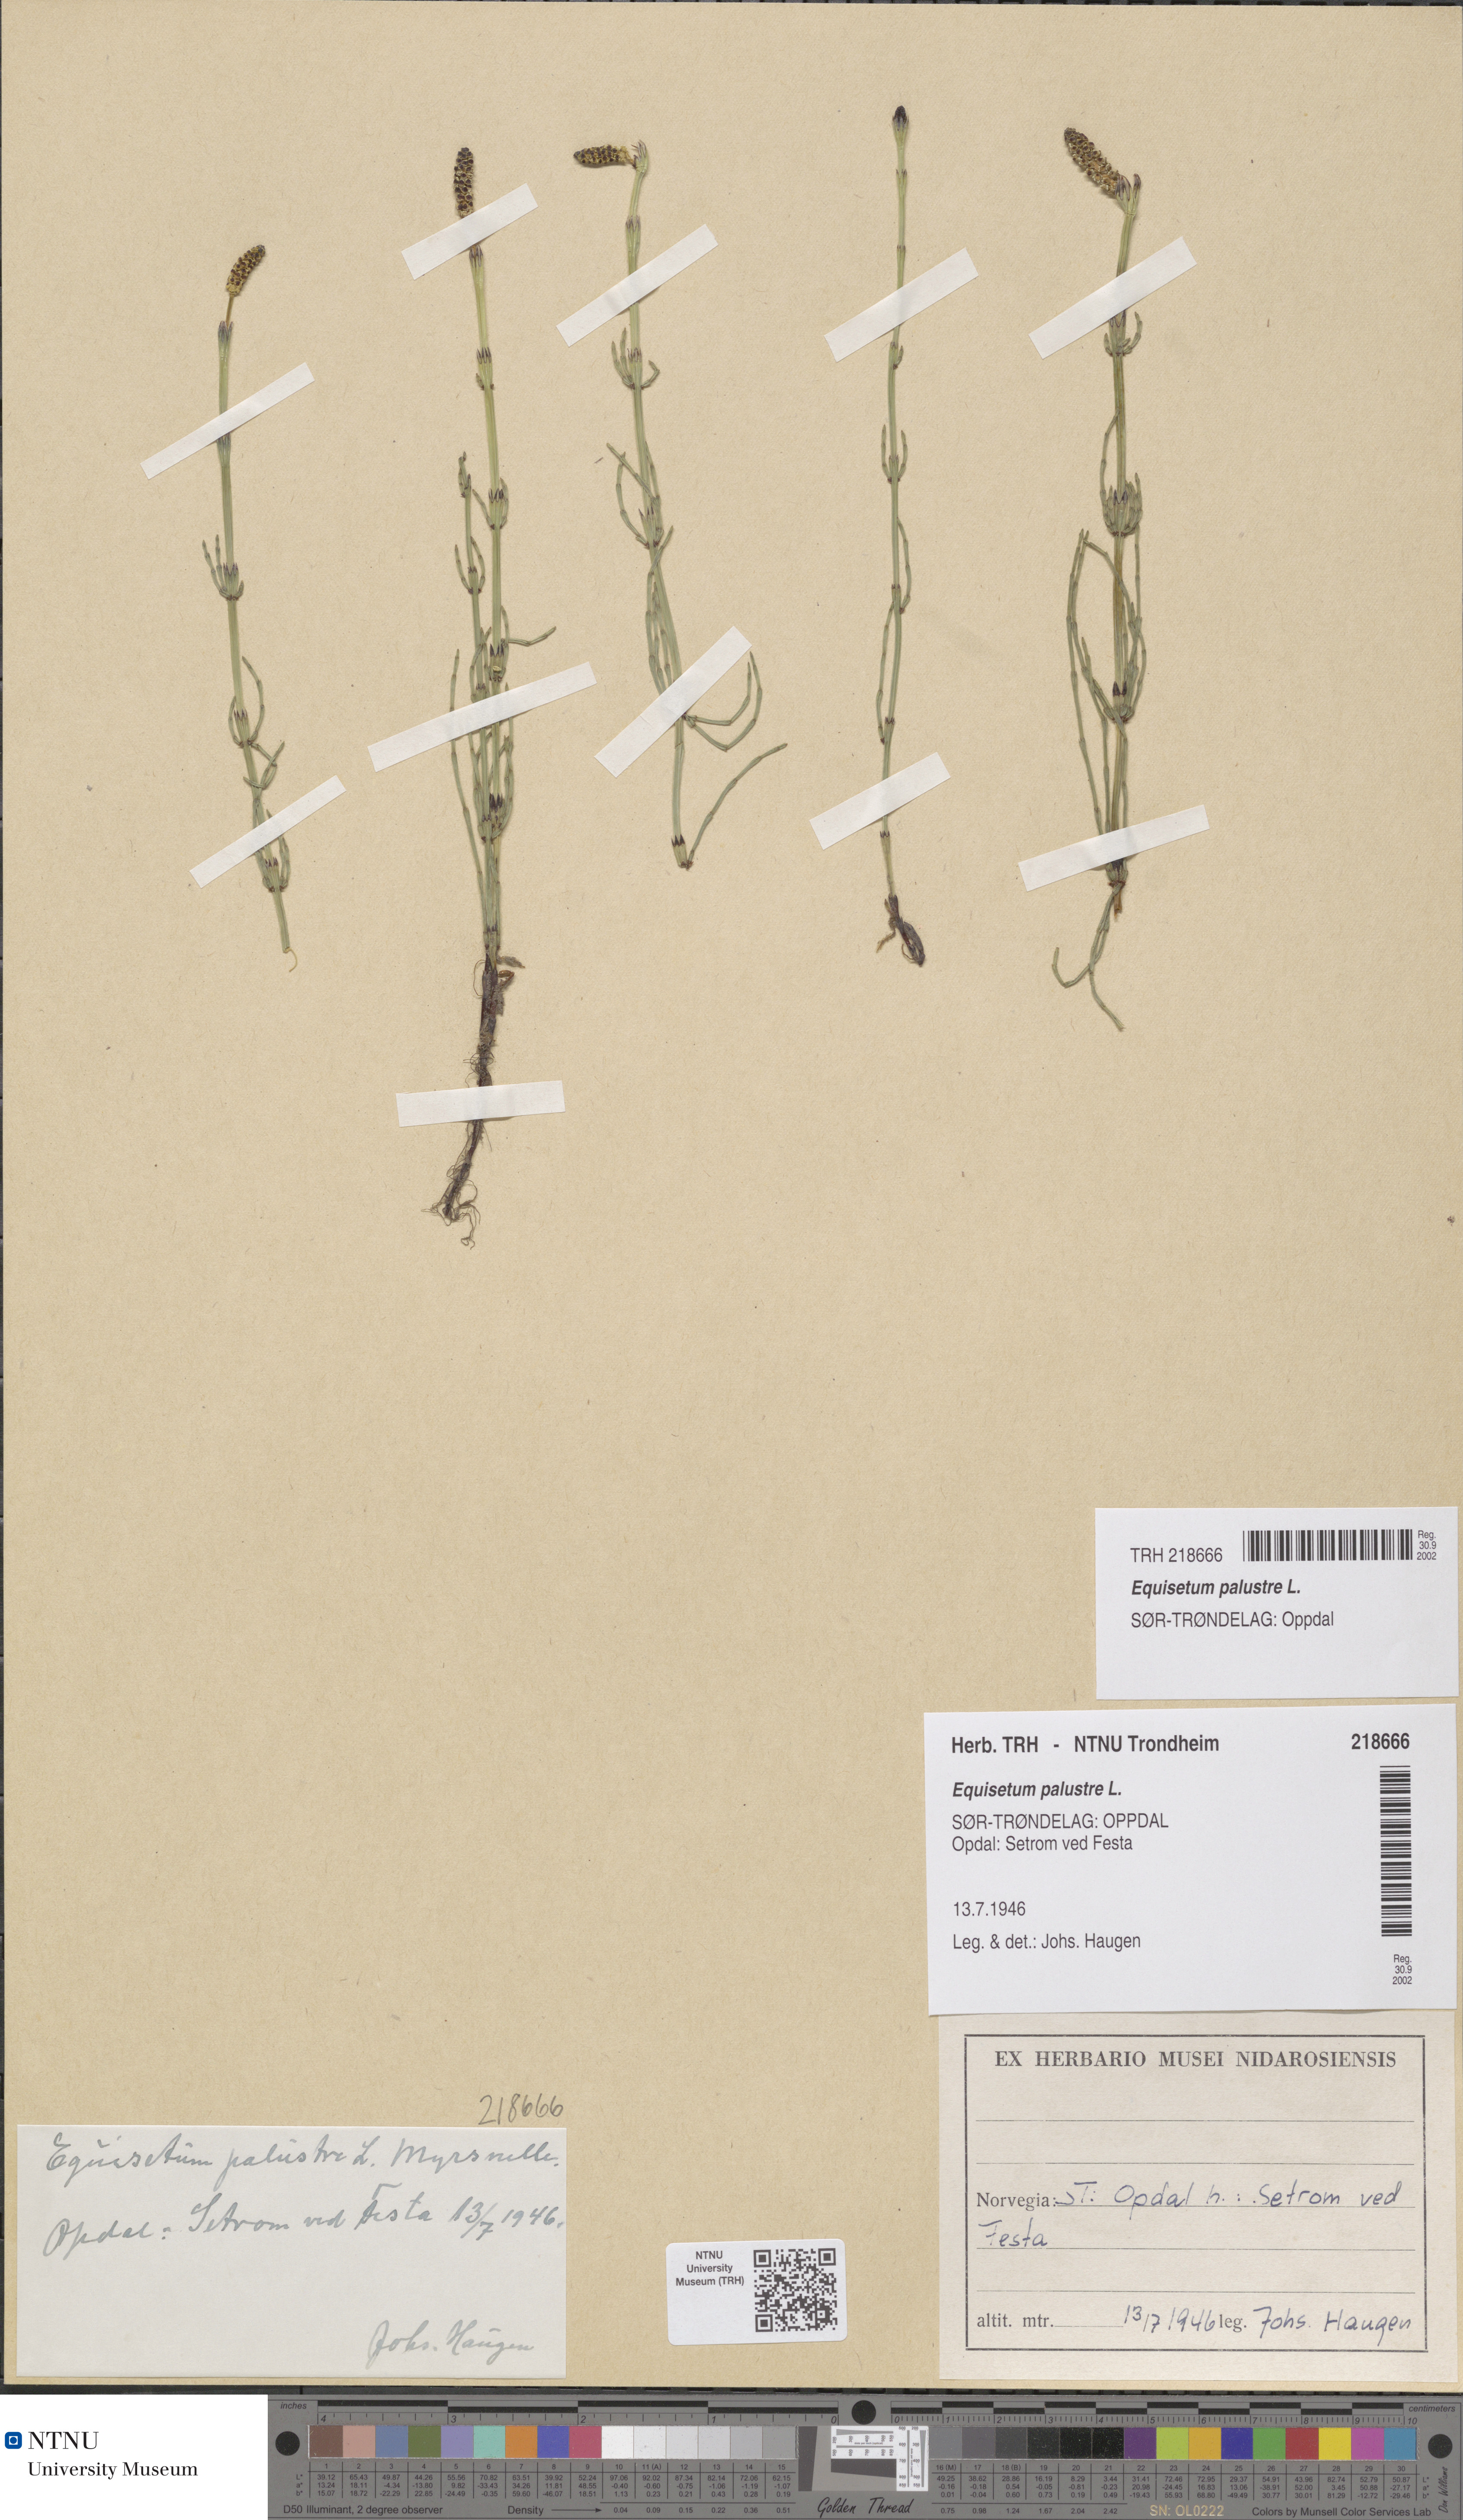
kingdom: Plantae
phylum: Tracheophyta
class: Polypodiopsida
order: Equisetales
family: Equisetaceae
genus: Equisetum
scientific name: Equisetum palustre
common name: Marsh horsetail
